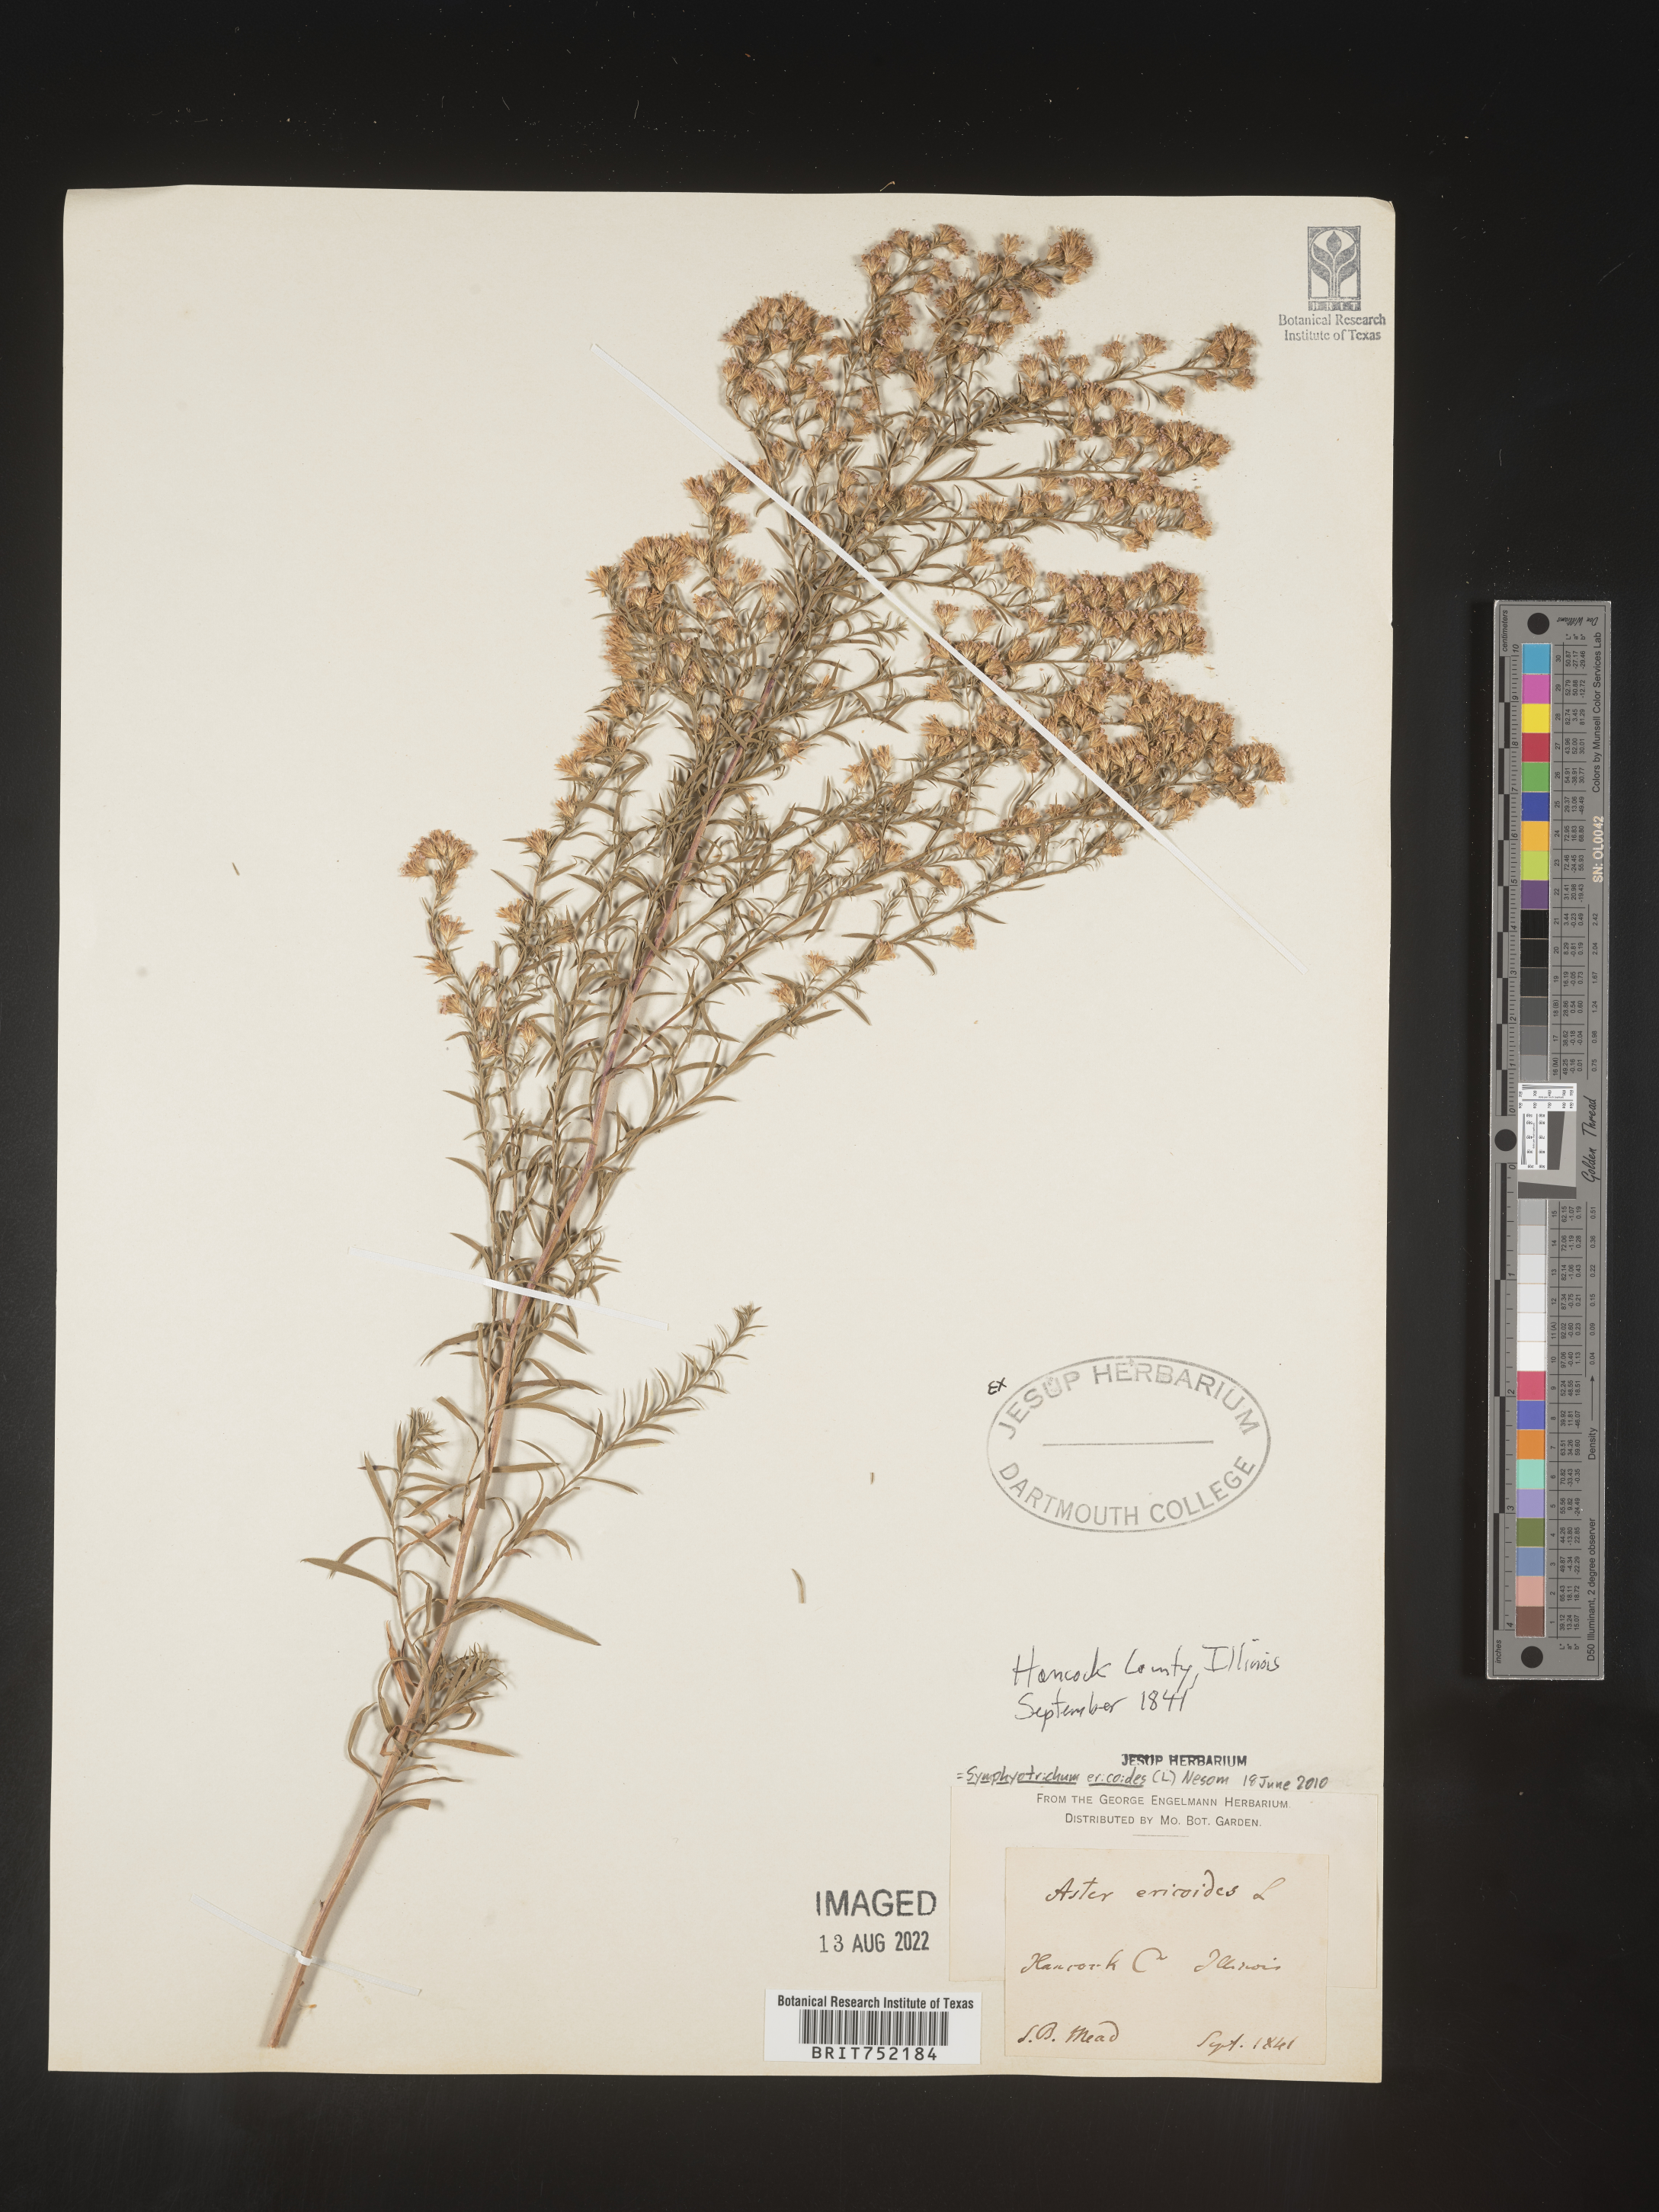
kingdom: Plantae
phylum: Tracheophyta
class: Magnoliopsida
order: Asterales
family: Asteraceae
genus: Symphyotrichum
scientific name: Symphyotrichum ericoides
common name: Heath aster
